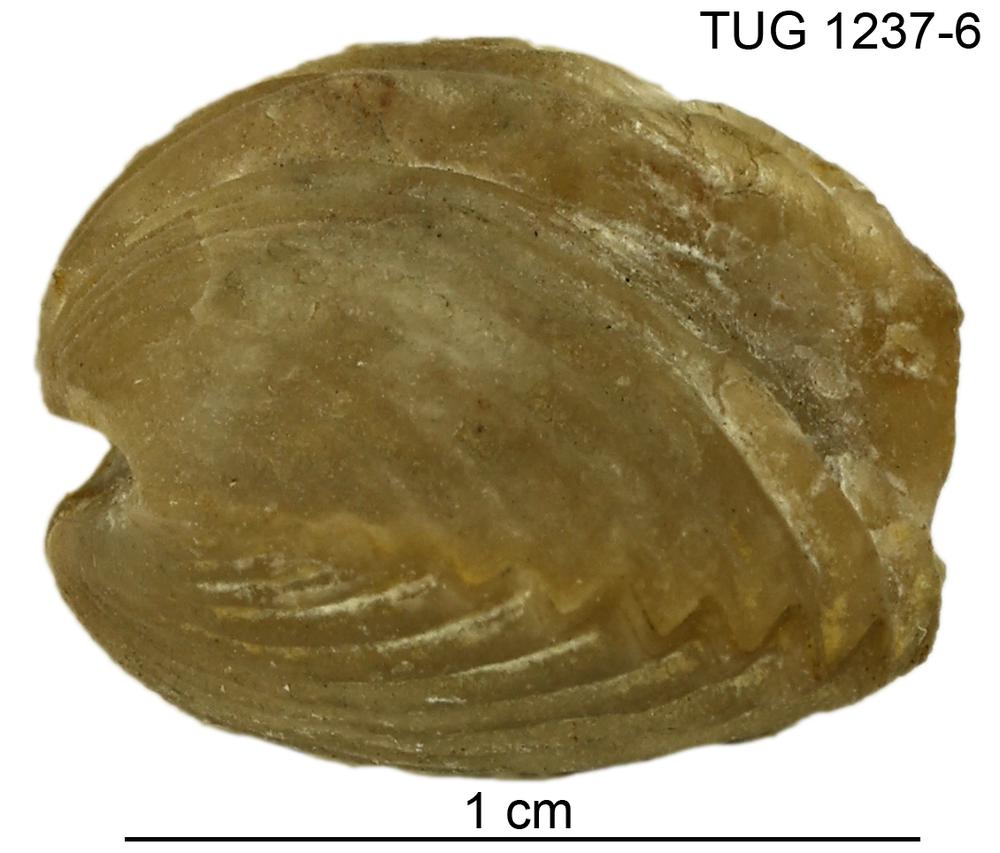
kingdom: Animalia
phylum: Brachiopoda
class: Rhynchonellata
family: Platystrophiidae
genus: Neoplatystrophia
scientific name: Neoplatystrophia humilis
